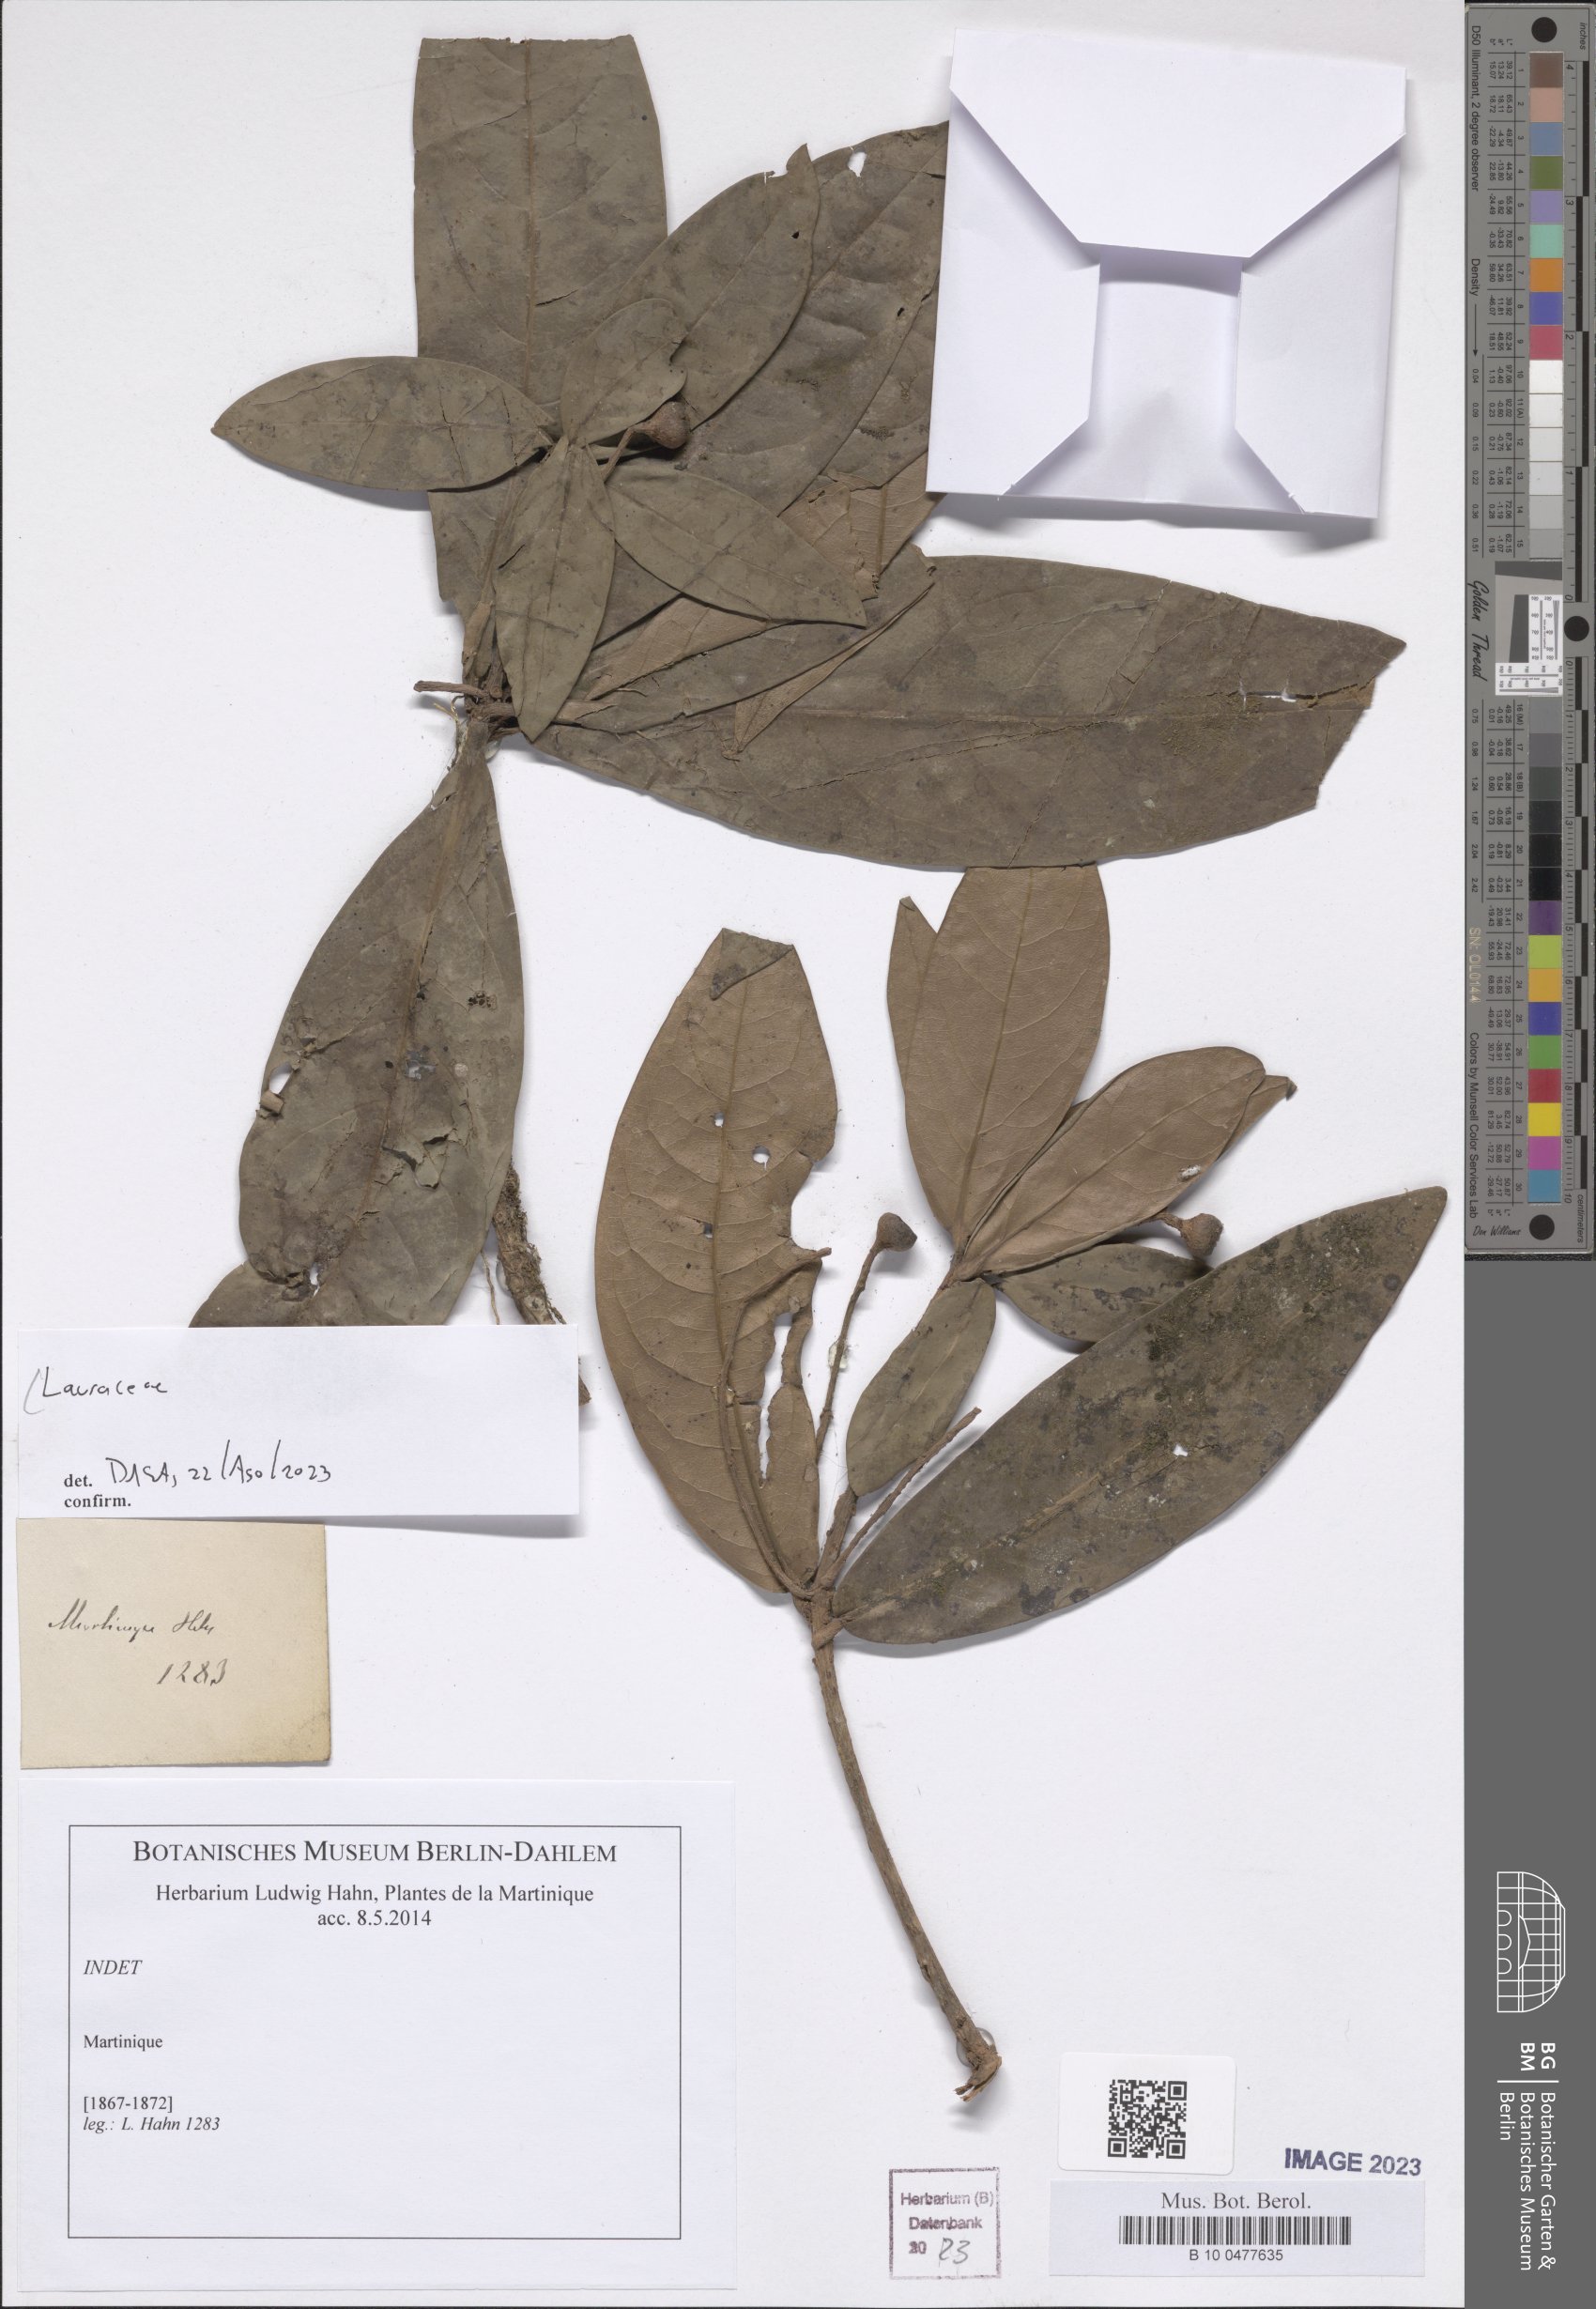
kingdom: Plantae
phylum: Tracheophyta
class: Magnoliopsida
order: Laurales
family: Lauraceae
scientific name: Lauraceae
